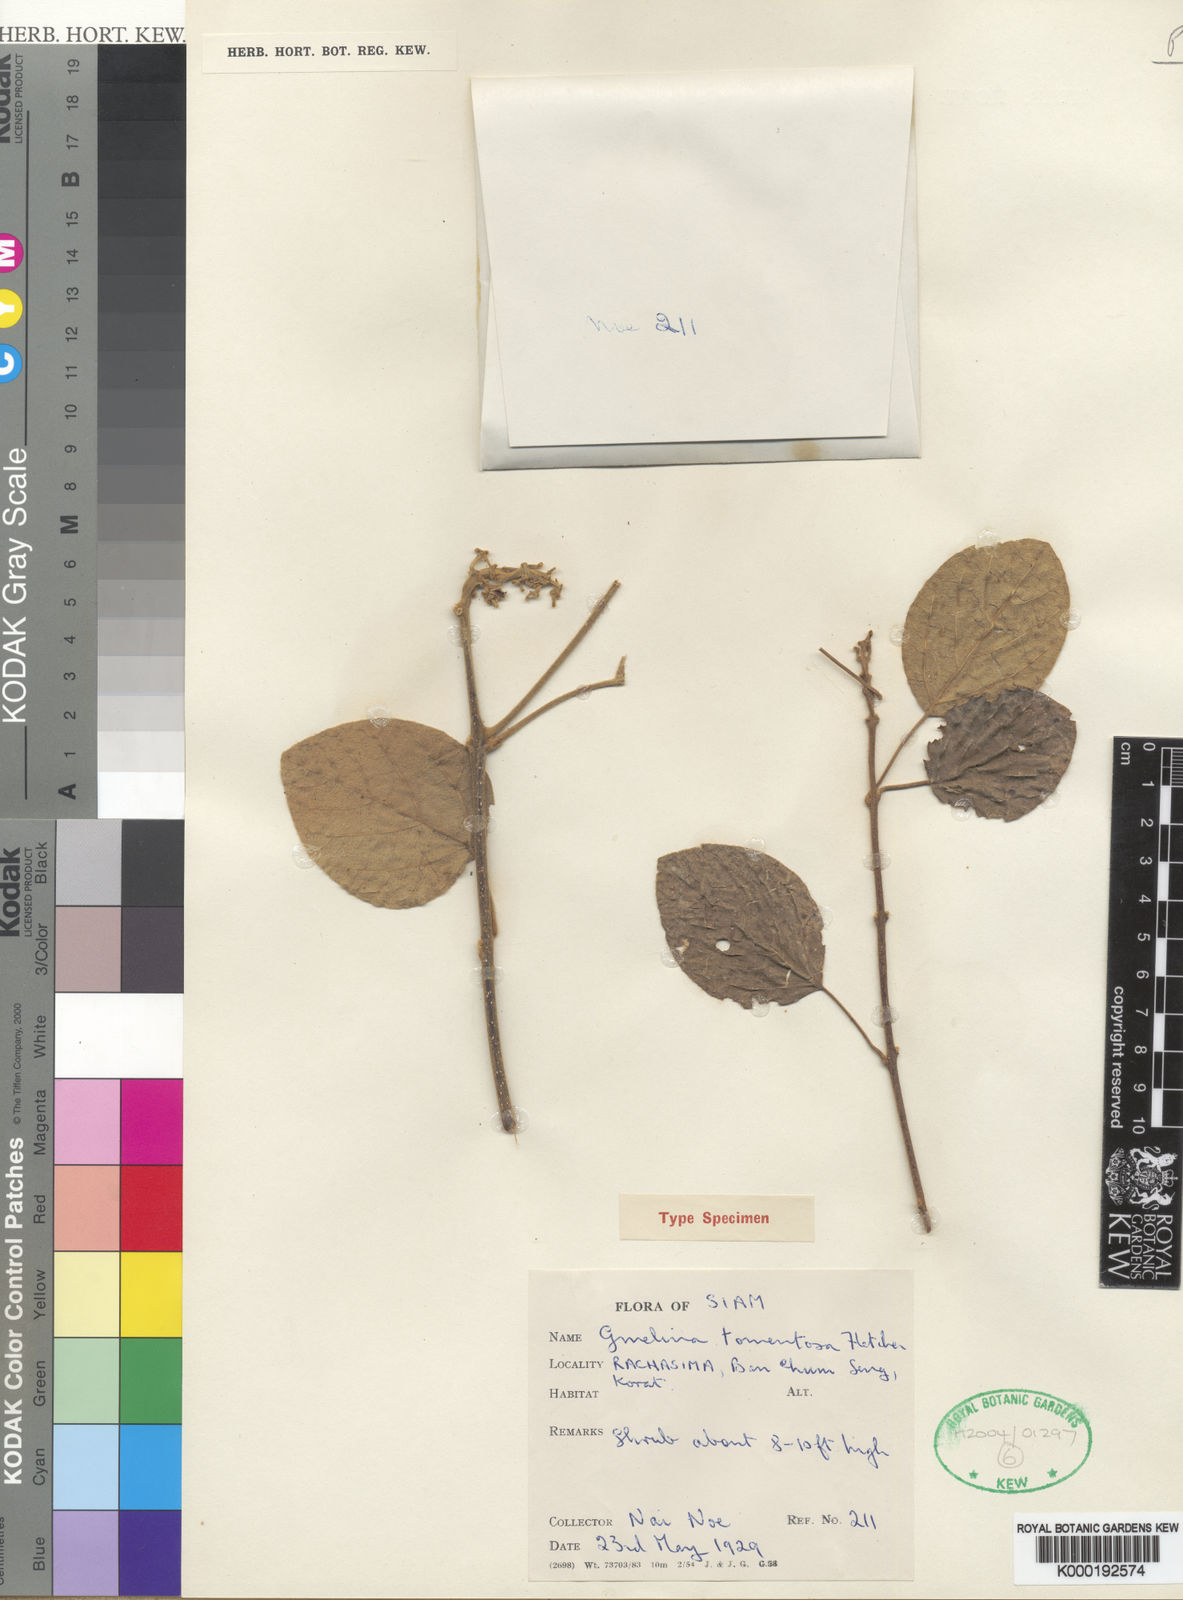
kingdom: Plantae
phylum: Tracheophyta
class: Magnoliopsida
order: Lamiales
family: Lamiaceae
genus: Gmelina
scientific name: Gmelina elliptica
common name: Badhara-bush
